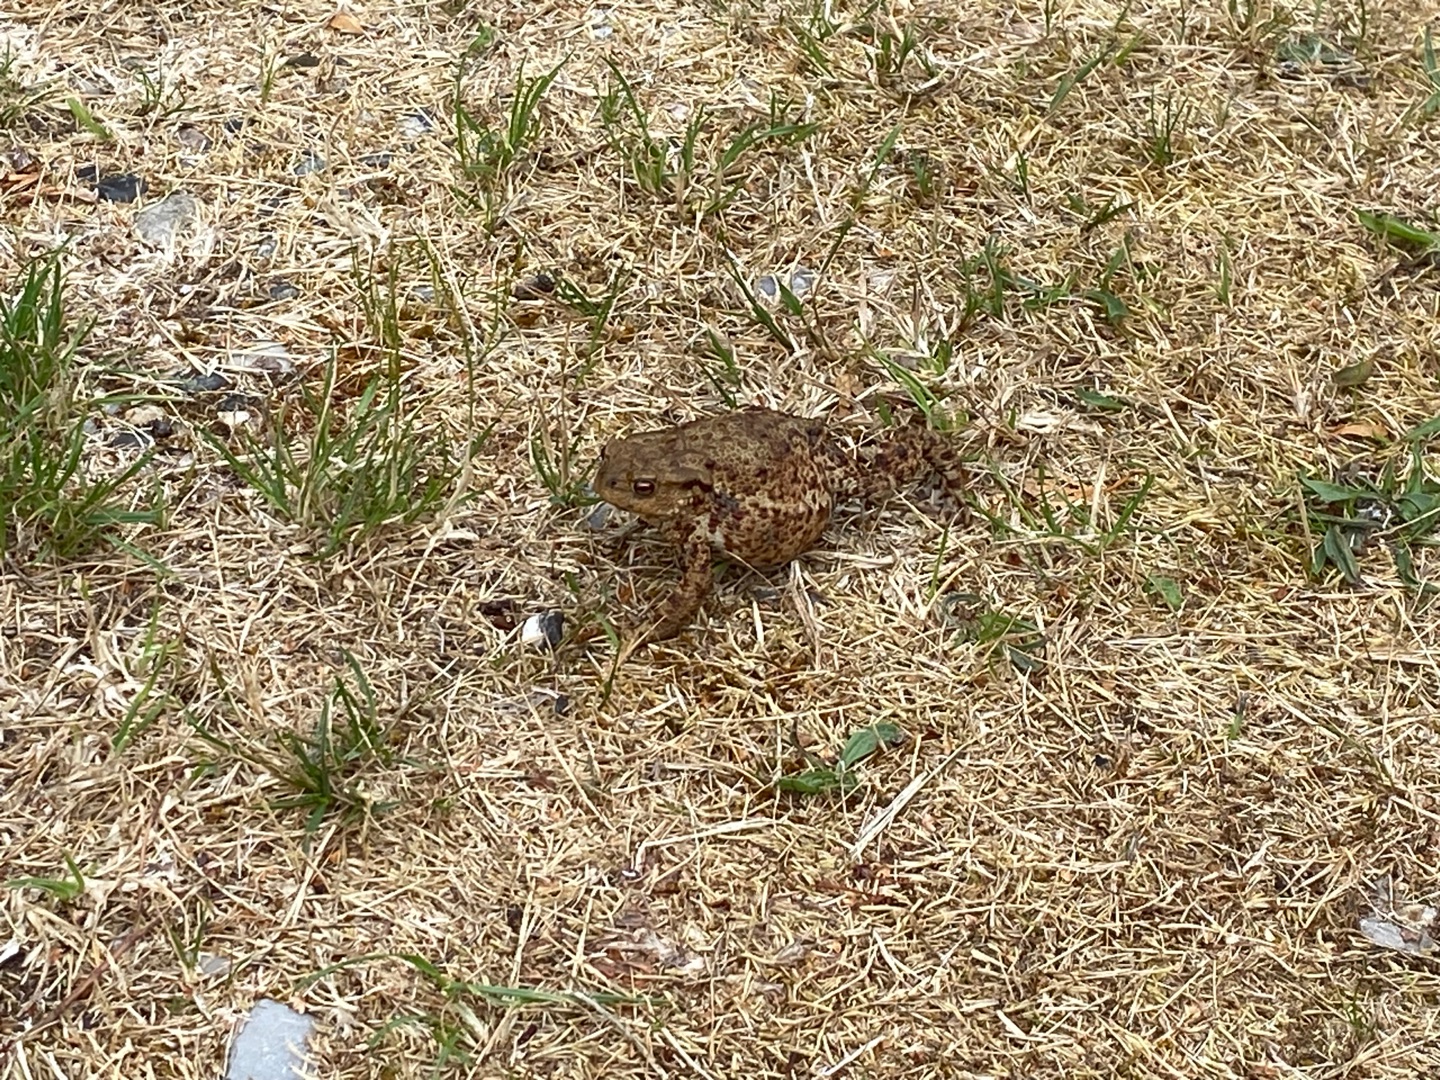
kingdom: Animalia
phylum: Chordata
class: Amphibia
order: Anura
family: Bufonidae
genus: Bufo
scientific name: Bufo bufo
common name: Skrubtudse
